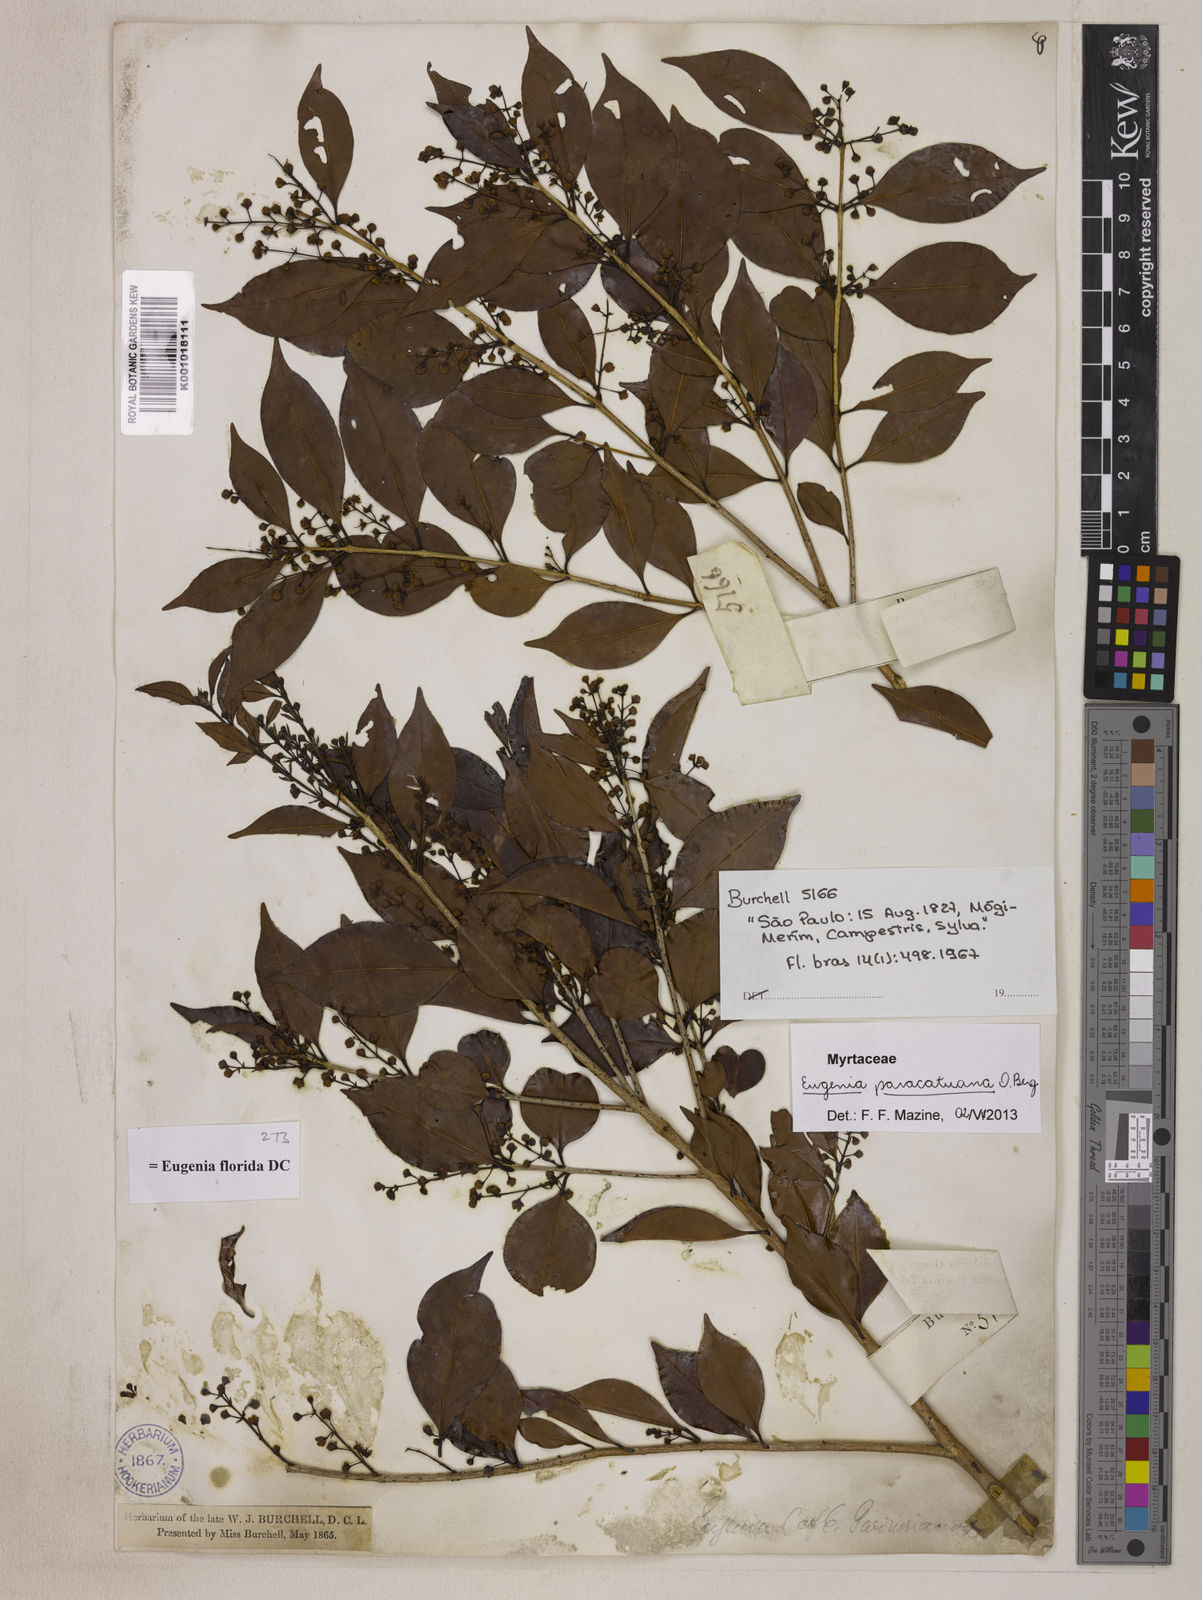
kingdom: Plantae
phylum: Tracheophyta
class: Magnoliopsida
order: Myrtales
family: Myrtaceae
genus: Eugenia
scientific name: Eugenia moraviana
